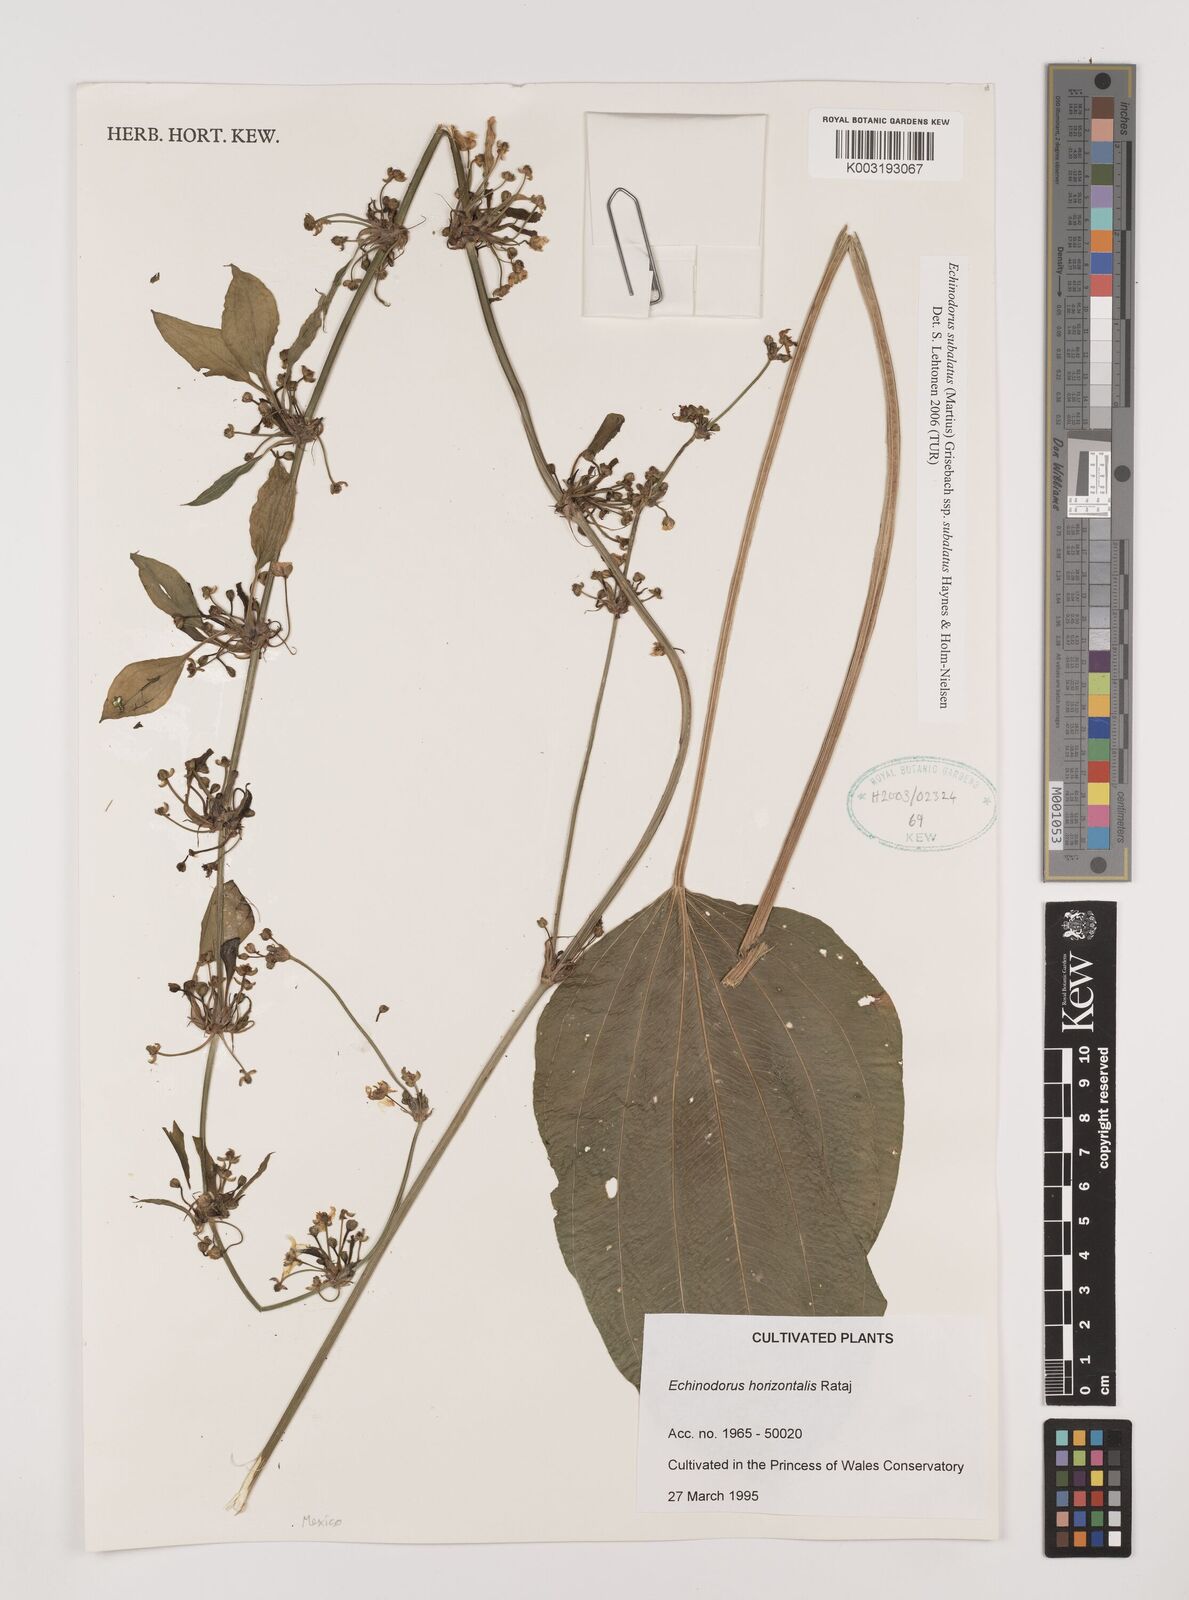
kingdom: Plantae
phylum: Tracheophyta
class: Liliopsida
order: Alismatales
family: Alismataceae
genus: Aquarius
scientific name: Aquarius subulatus
